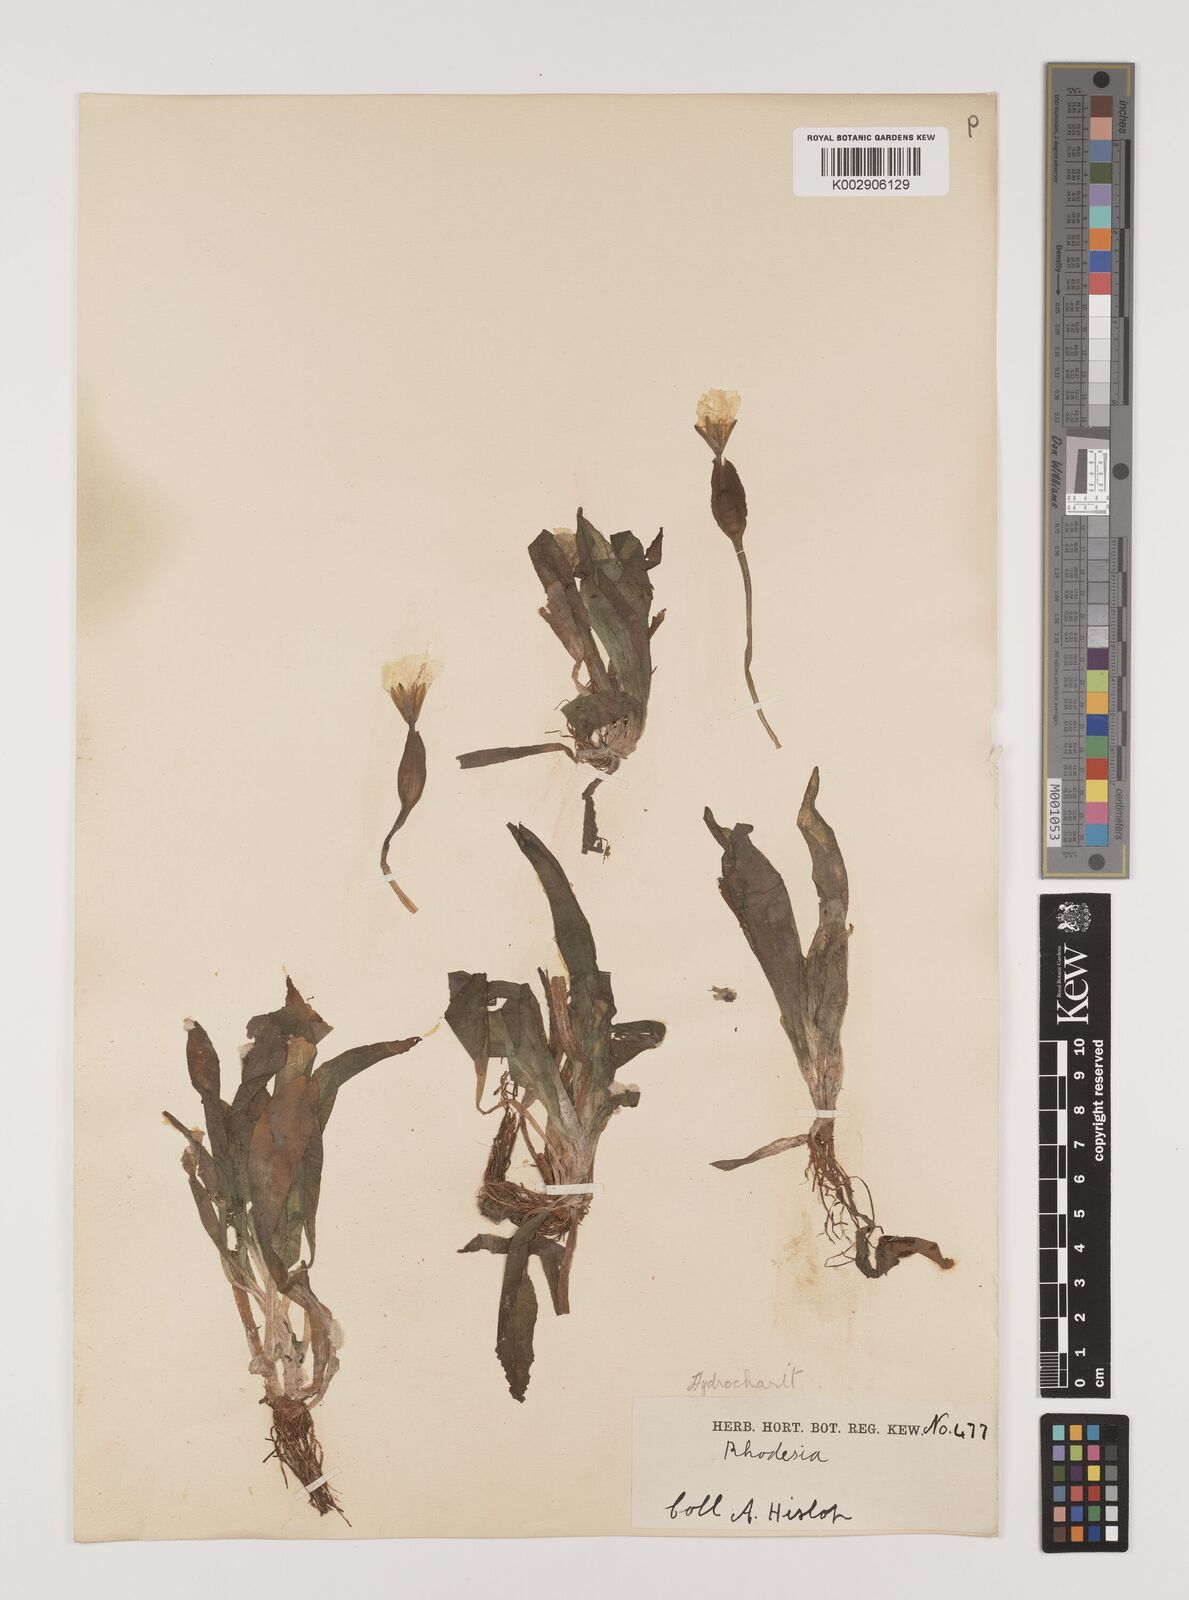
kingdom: Plantae
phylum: Tracheophyta
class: Liliopsida
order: Alismatales
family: Hydrocharitaceae
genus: Ottelia
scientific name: Ottelia ulvifolia
